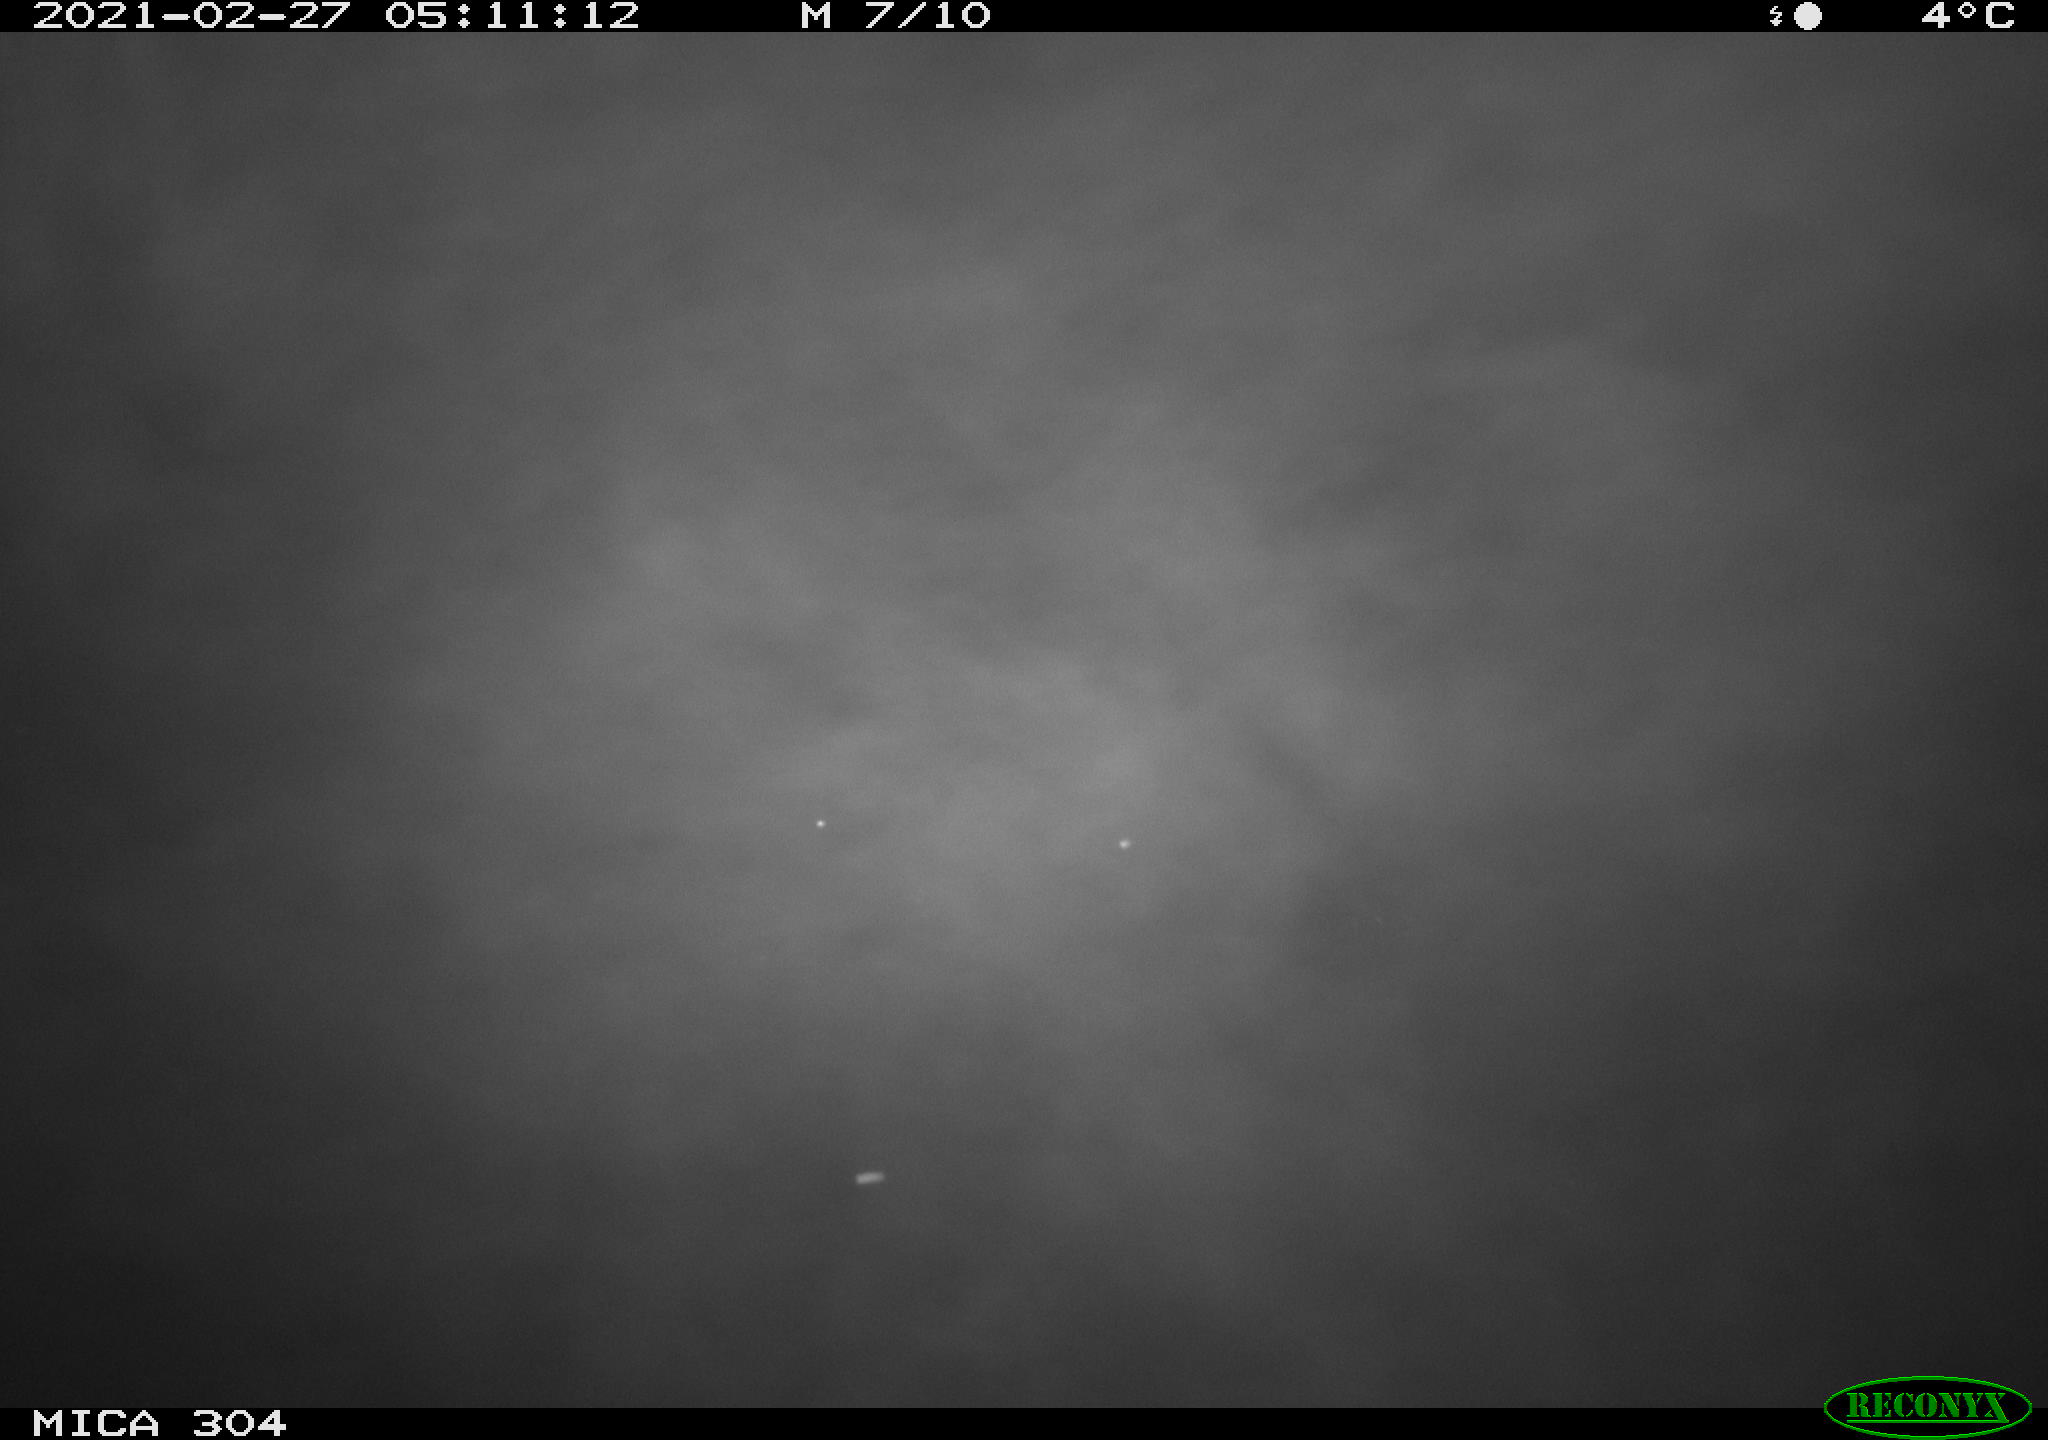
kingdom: Animalia
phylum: Chordata
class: Aves
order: Anseriformes
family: Anatidae
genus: Anas
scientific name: Anas platyrhynchos
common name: Mallard
